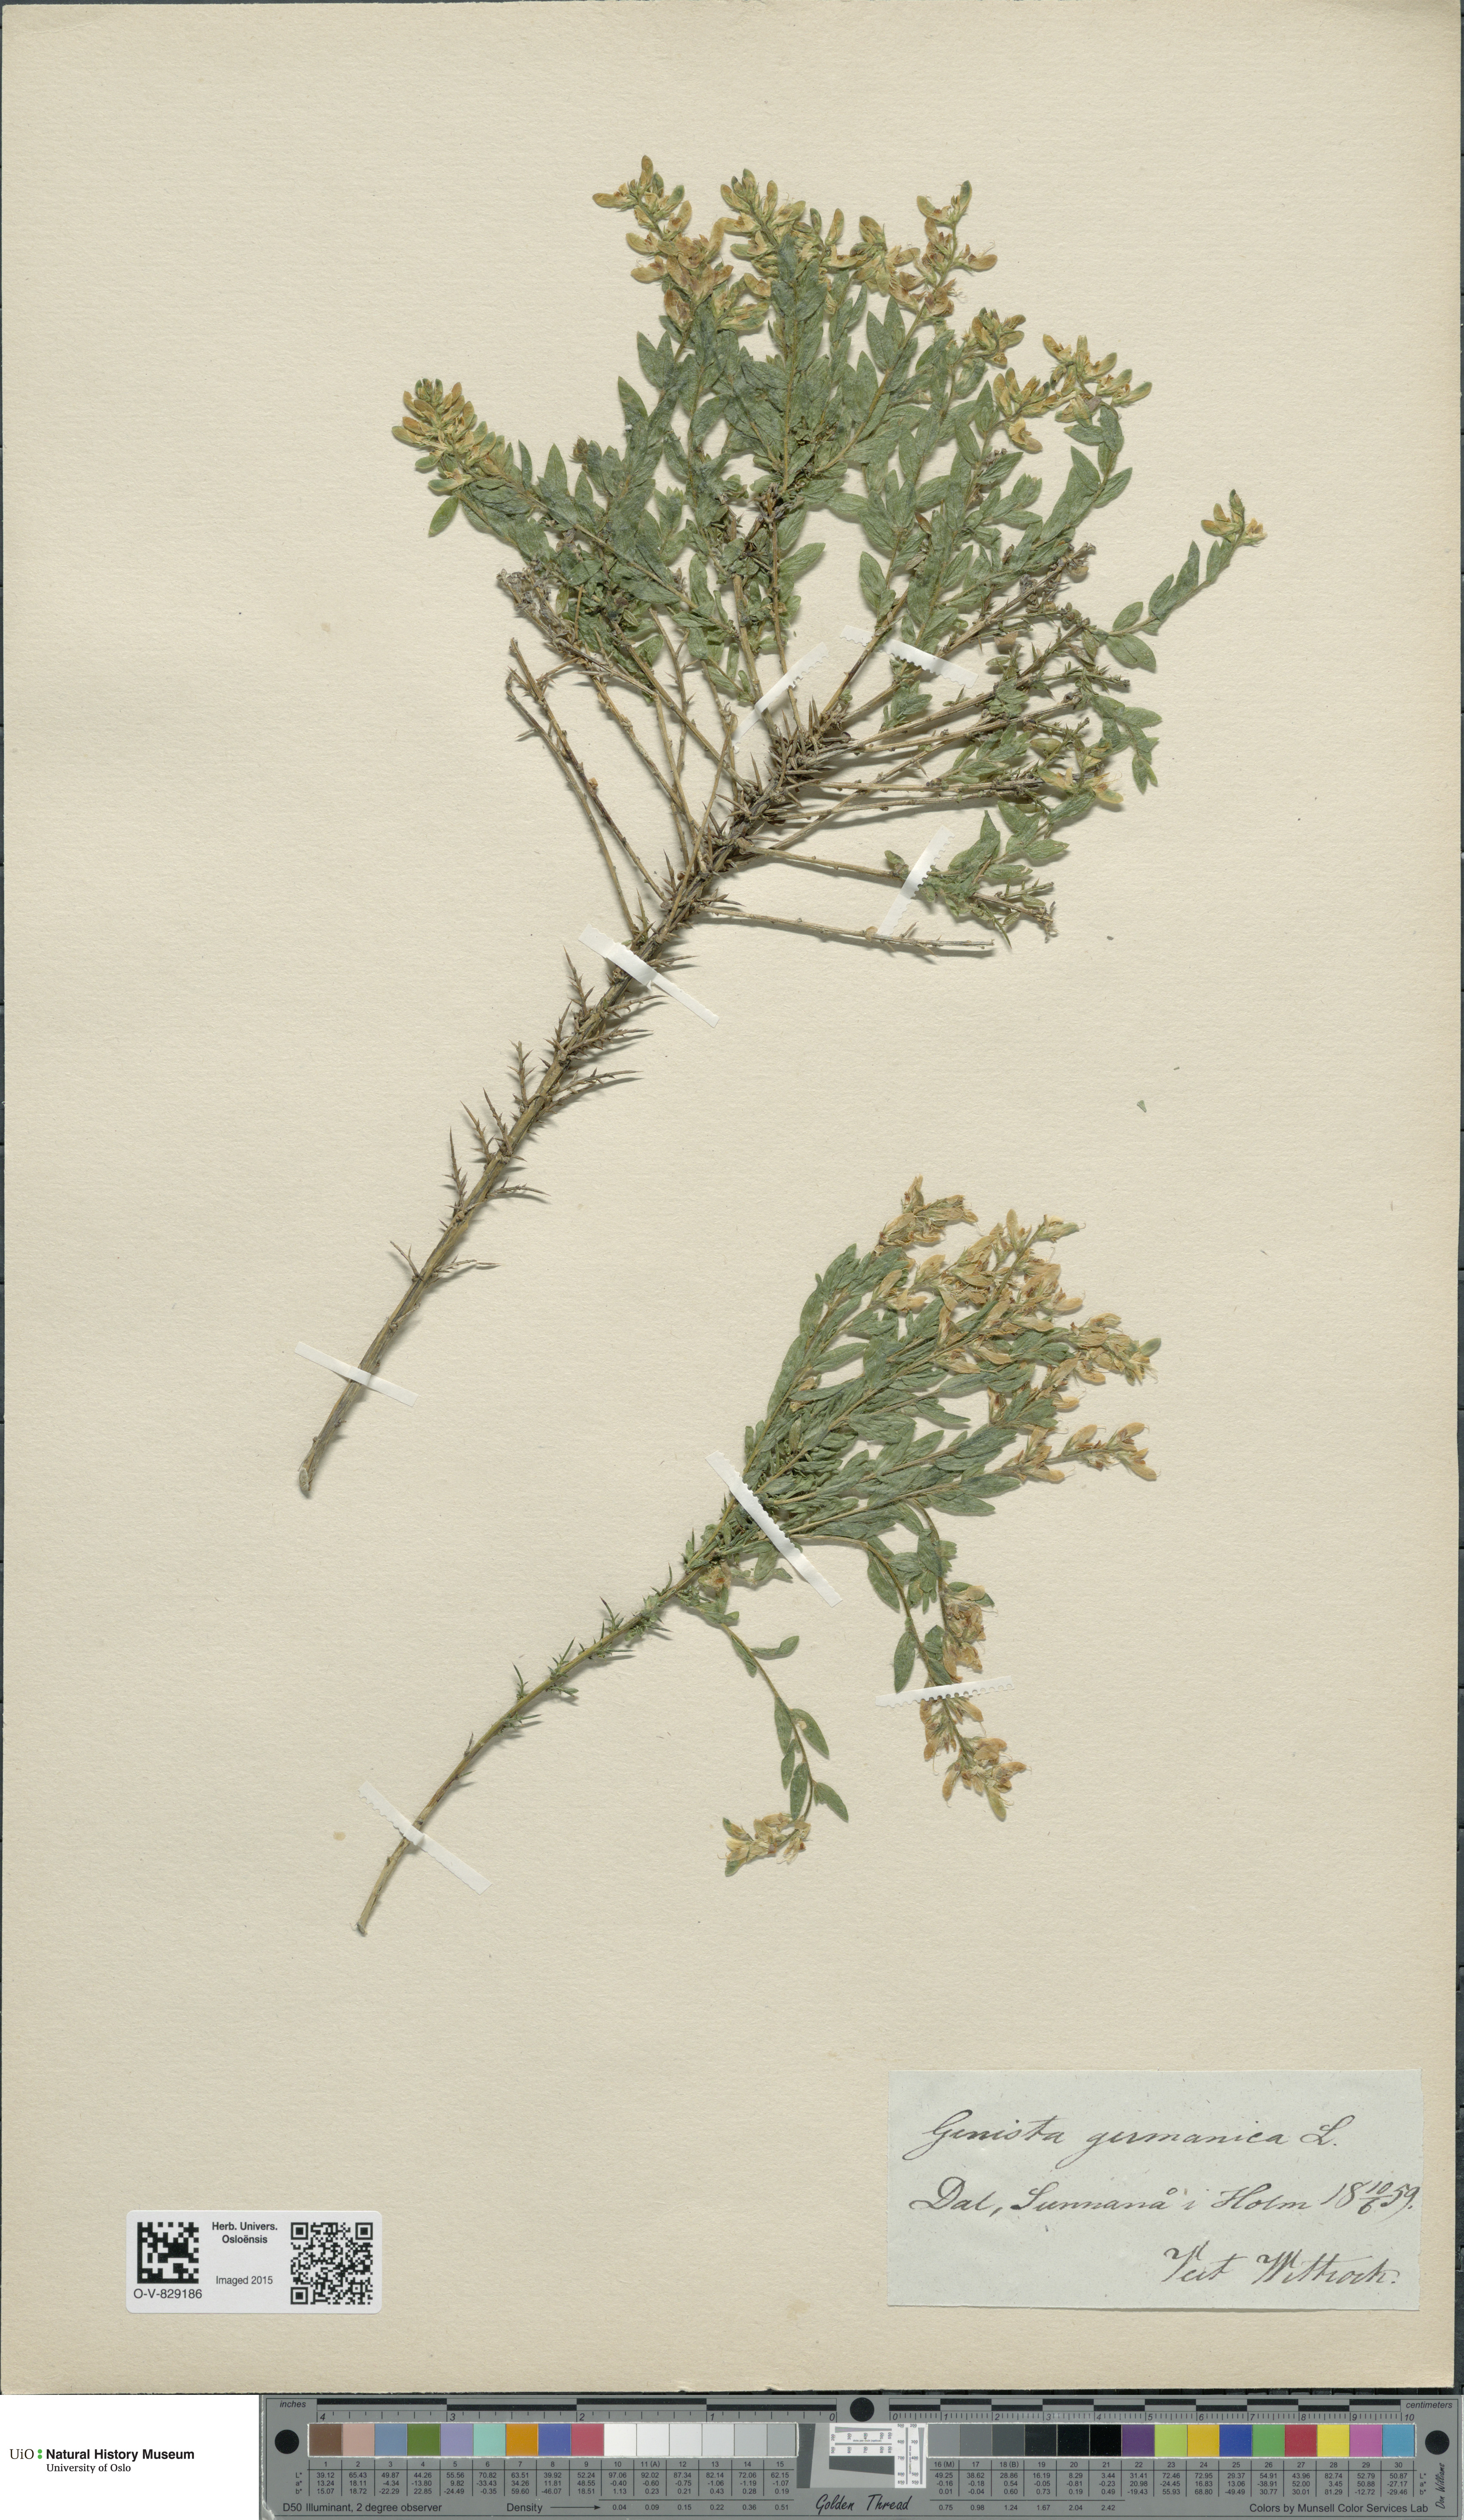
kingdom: Plantae
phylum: Tracheophyta
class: Magnoliopsida
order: Fabales
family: Fabaceae
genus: Genista
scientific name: Genista germanica
